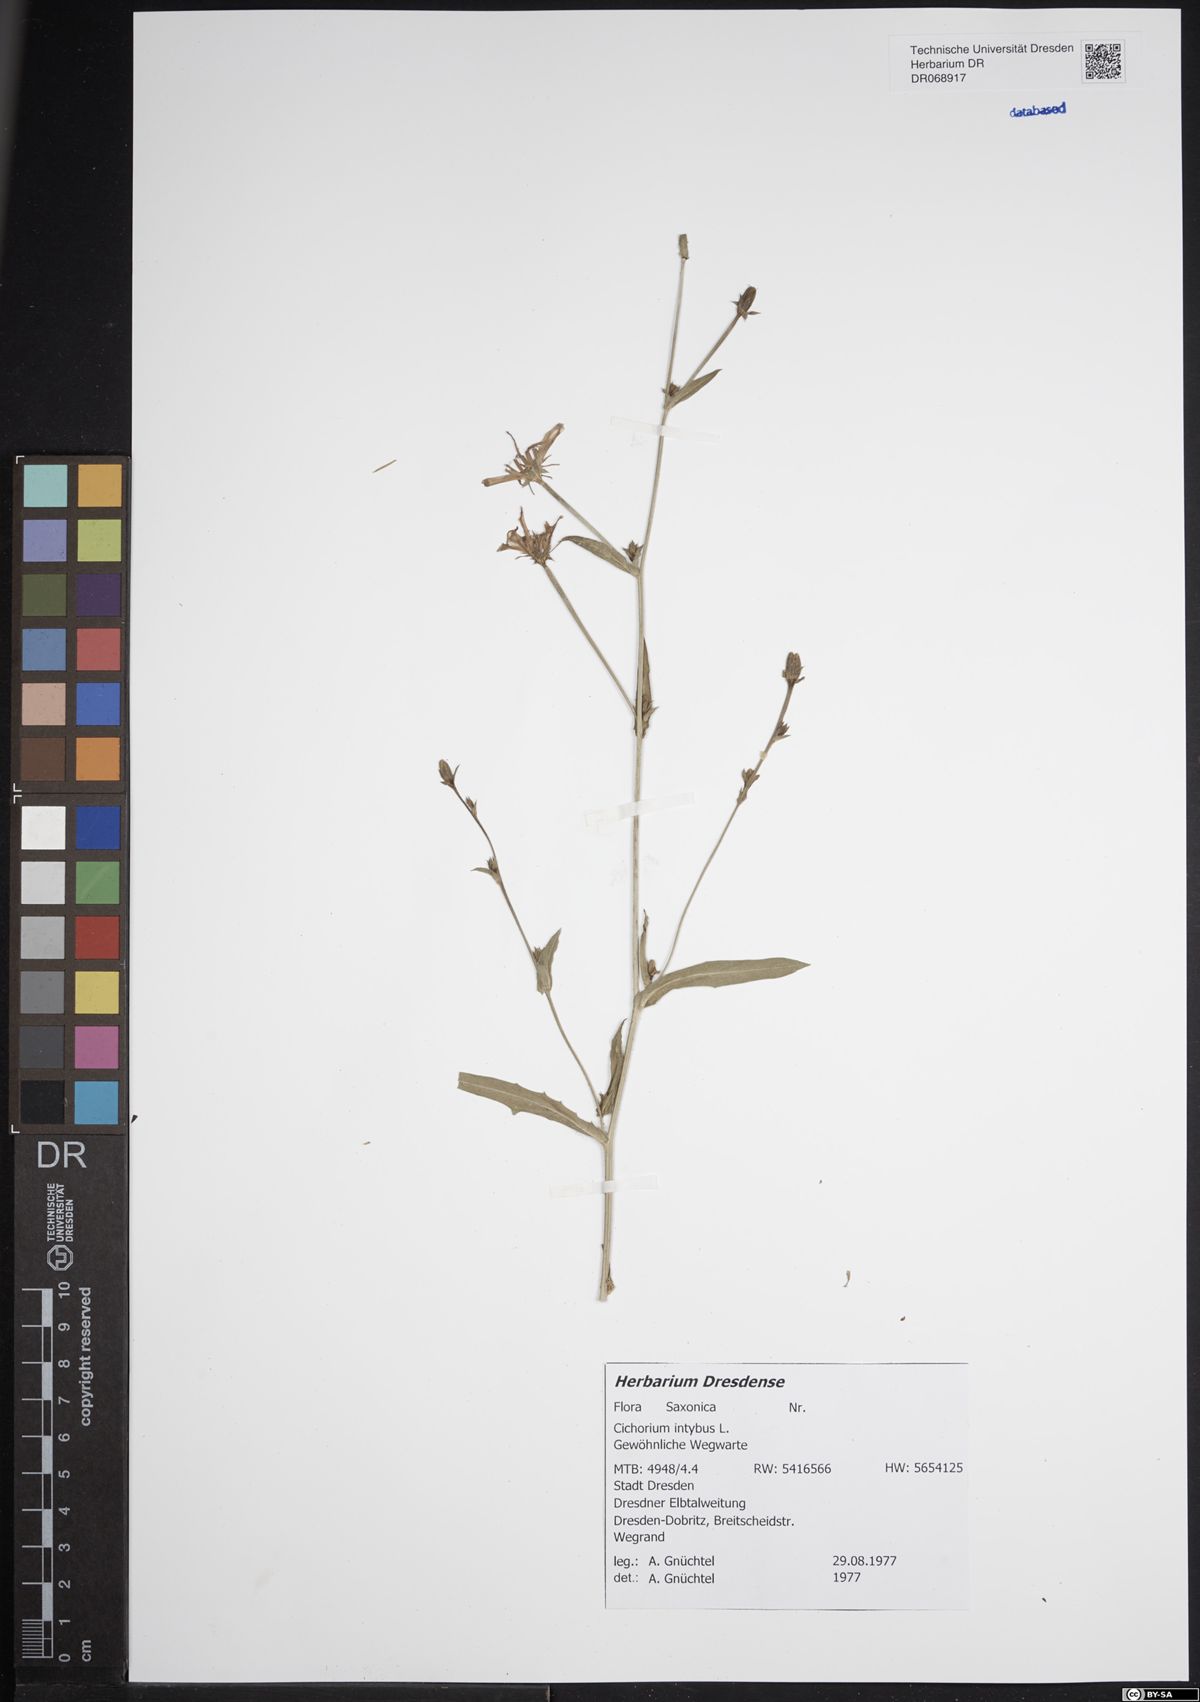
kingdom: Plantae
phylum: Tracheophyta
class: Magnoliopsida
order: Asterales
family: Asteraceae
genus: Cichorium
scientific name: Cichorium intybus
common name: Chicory
